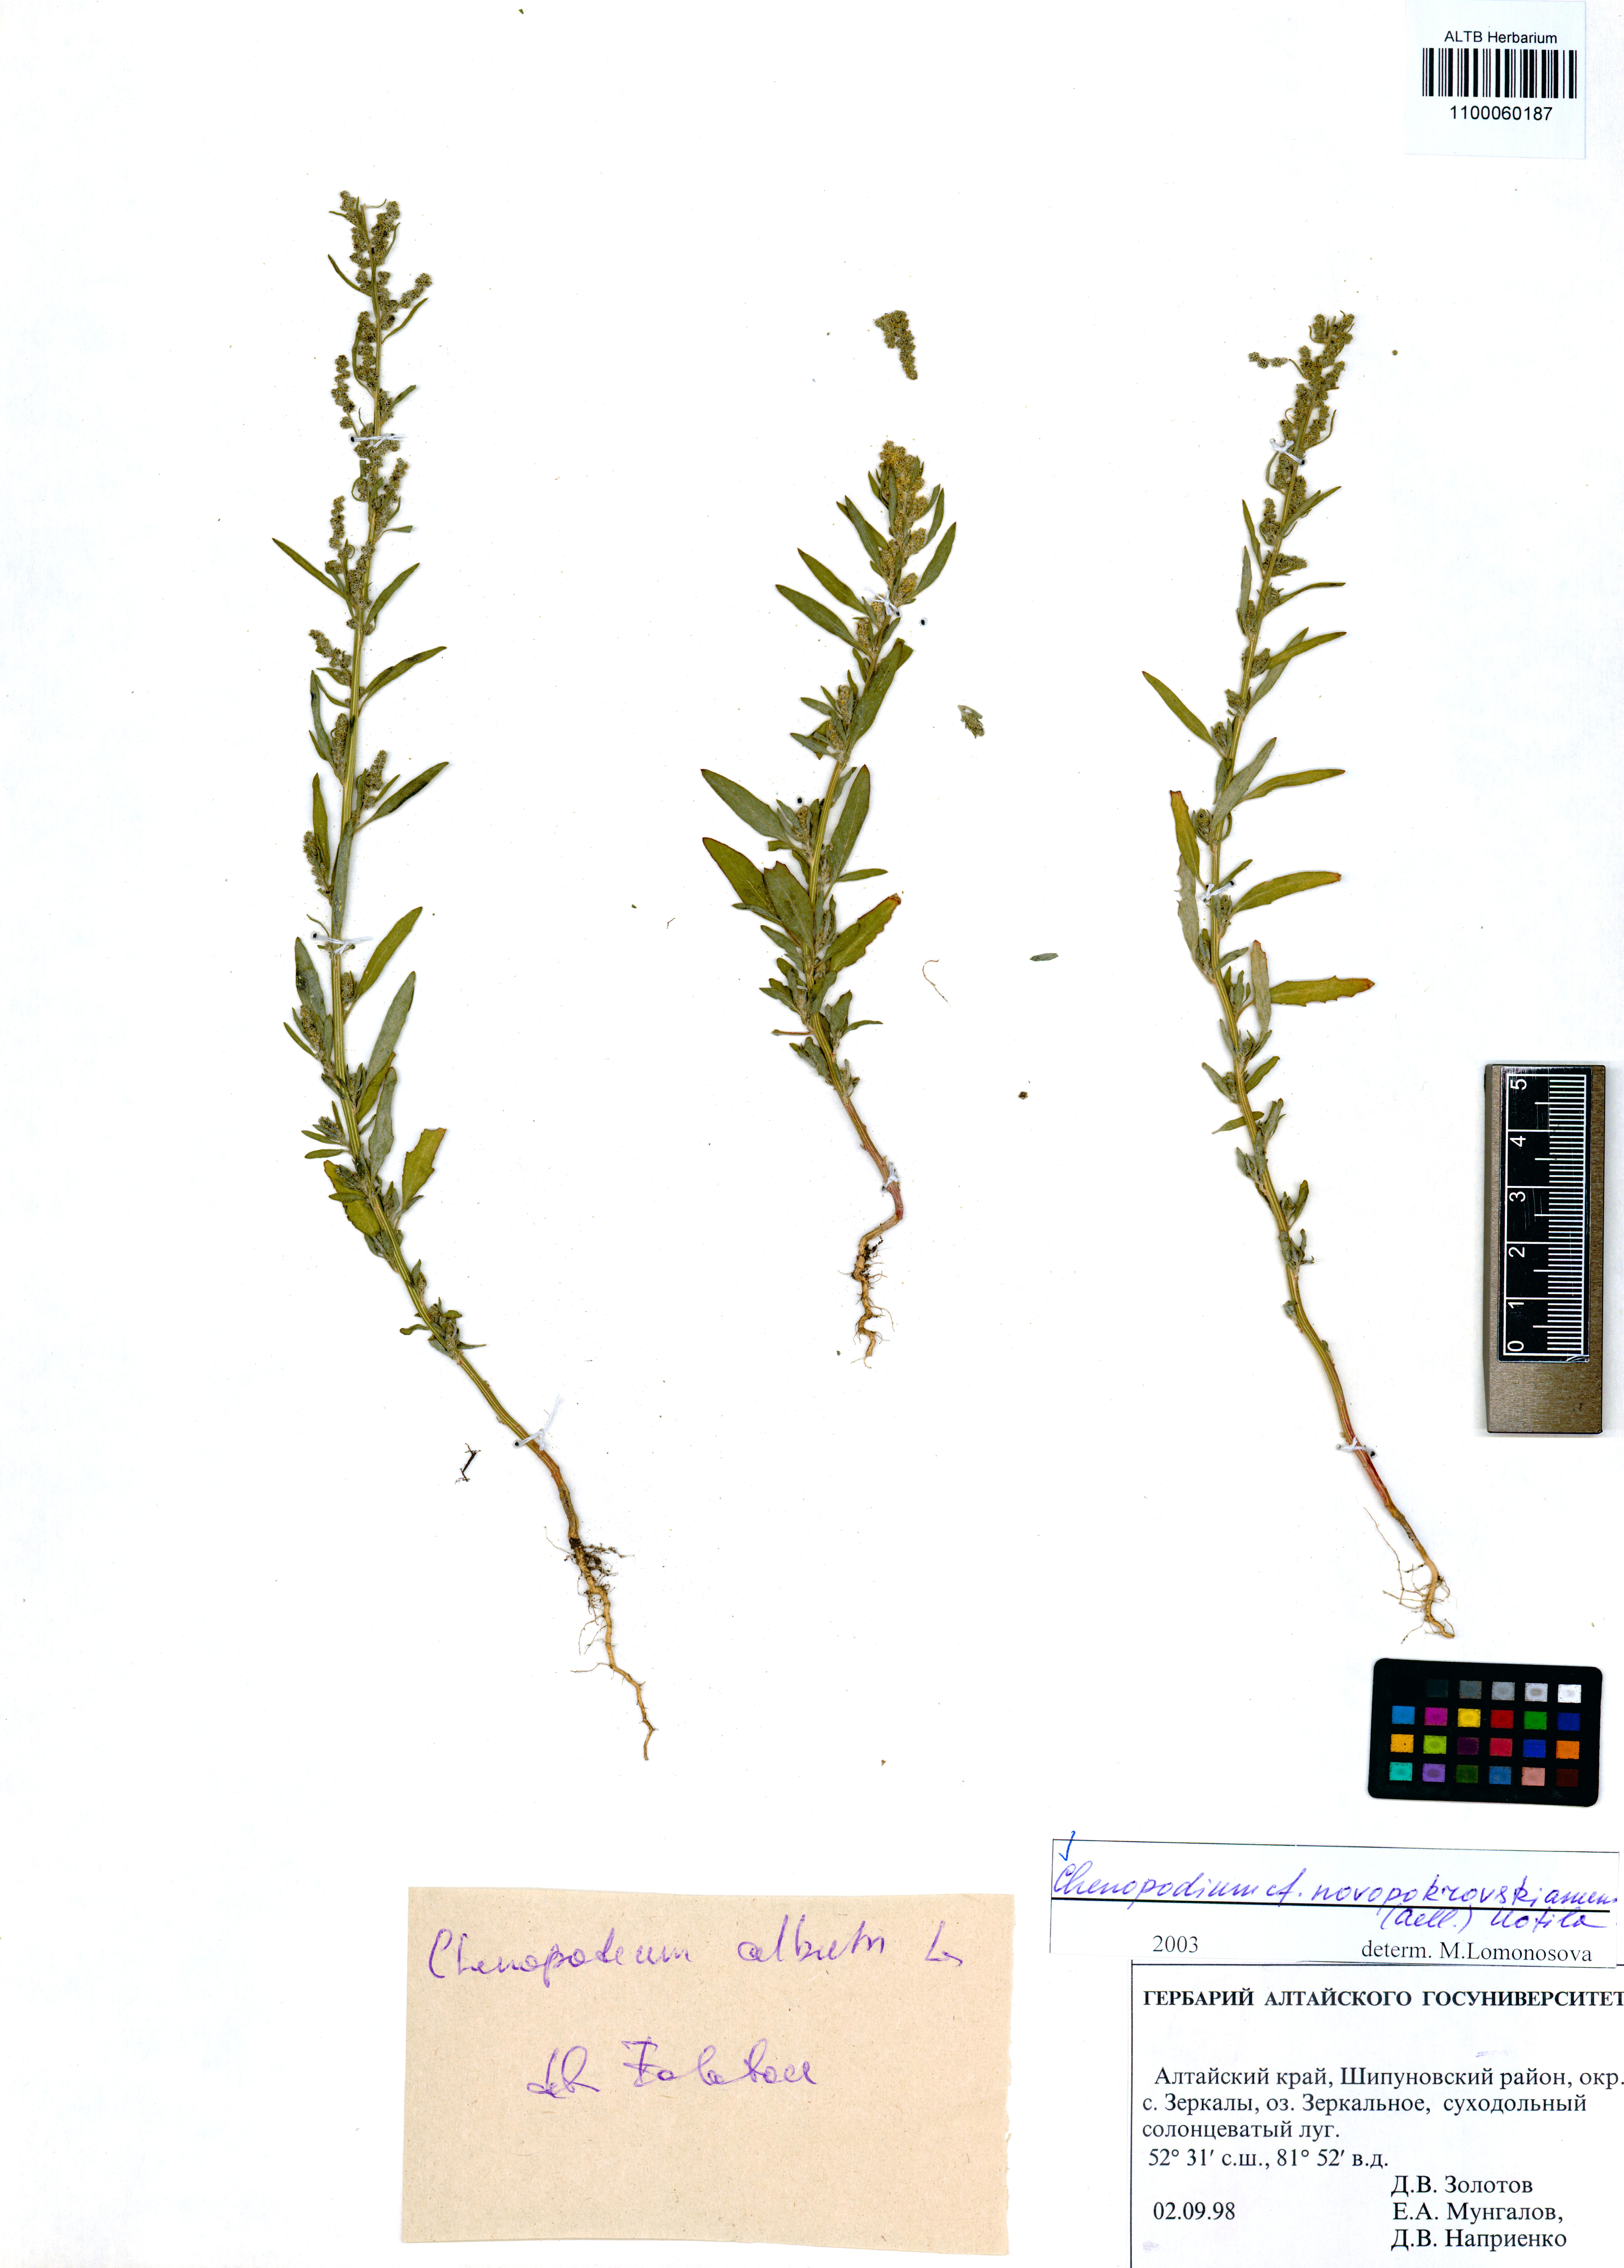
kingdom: Plantae
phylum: Tracheophyta
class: Magnoliopsida
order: Caryophyllales
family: Amaranthaceae
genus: Chenopodium
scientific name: Chenopodium novopokrovskyanum
